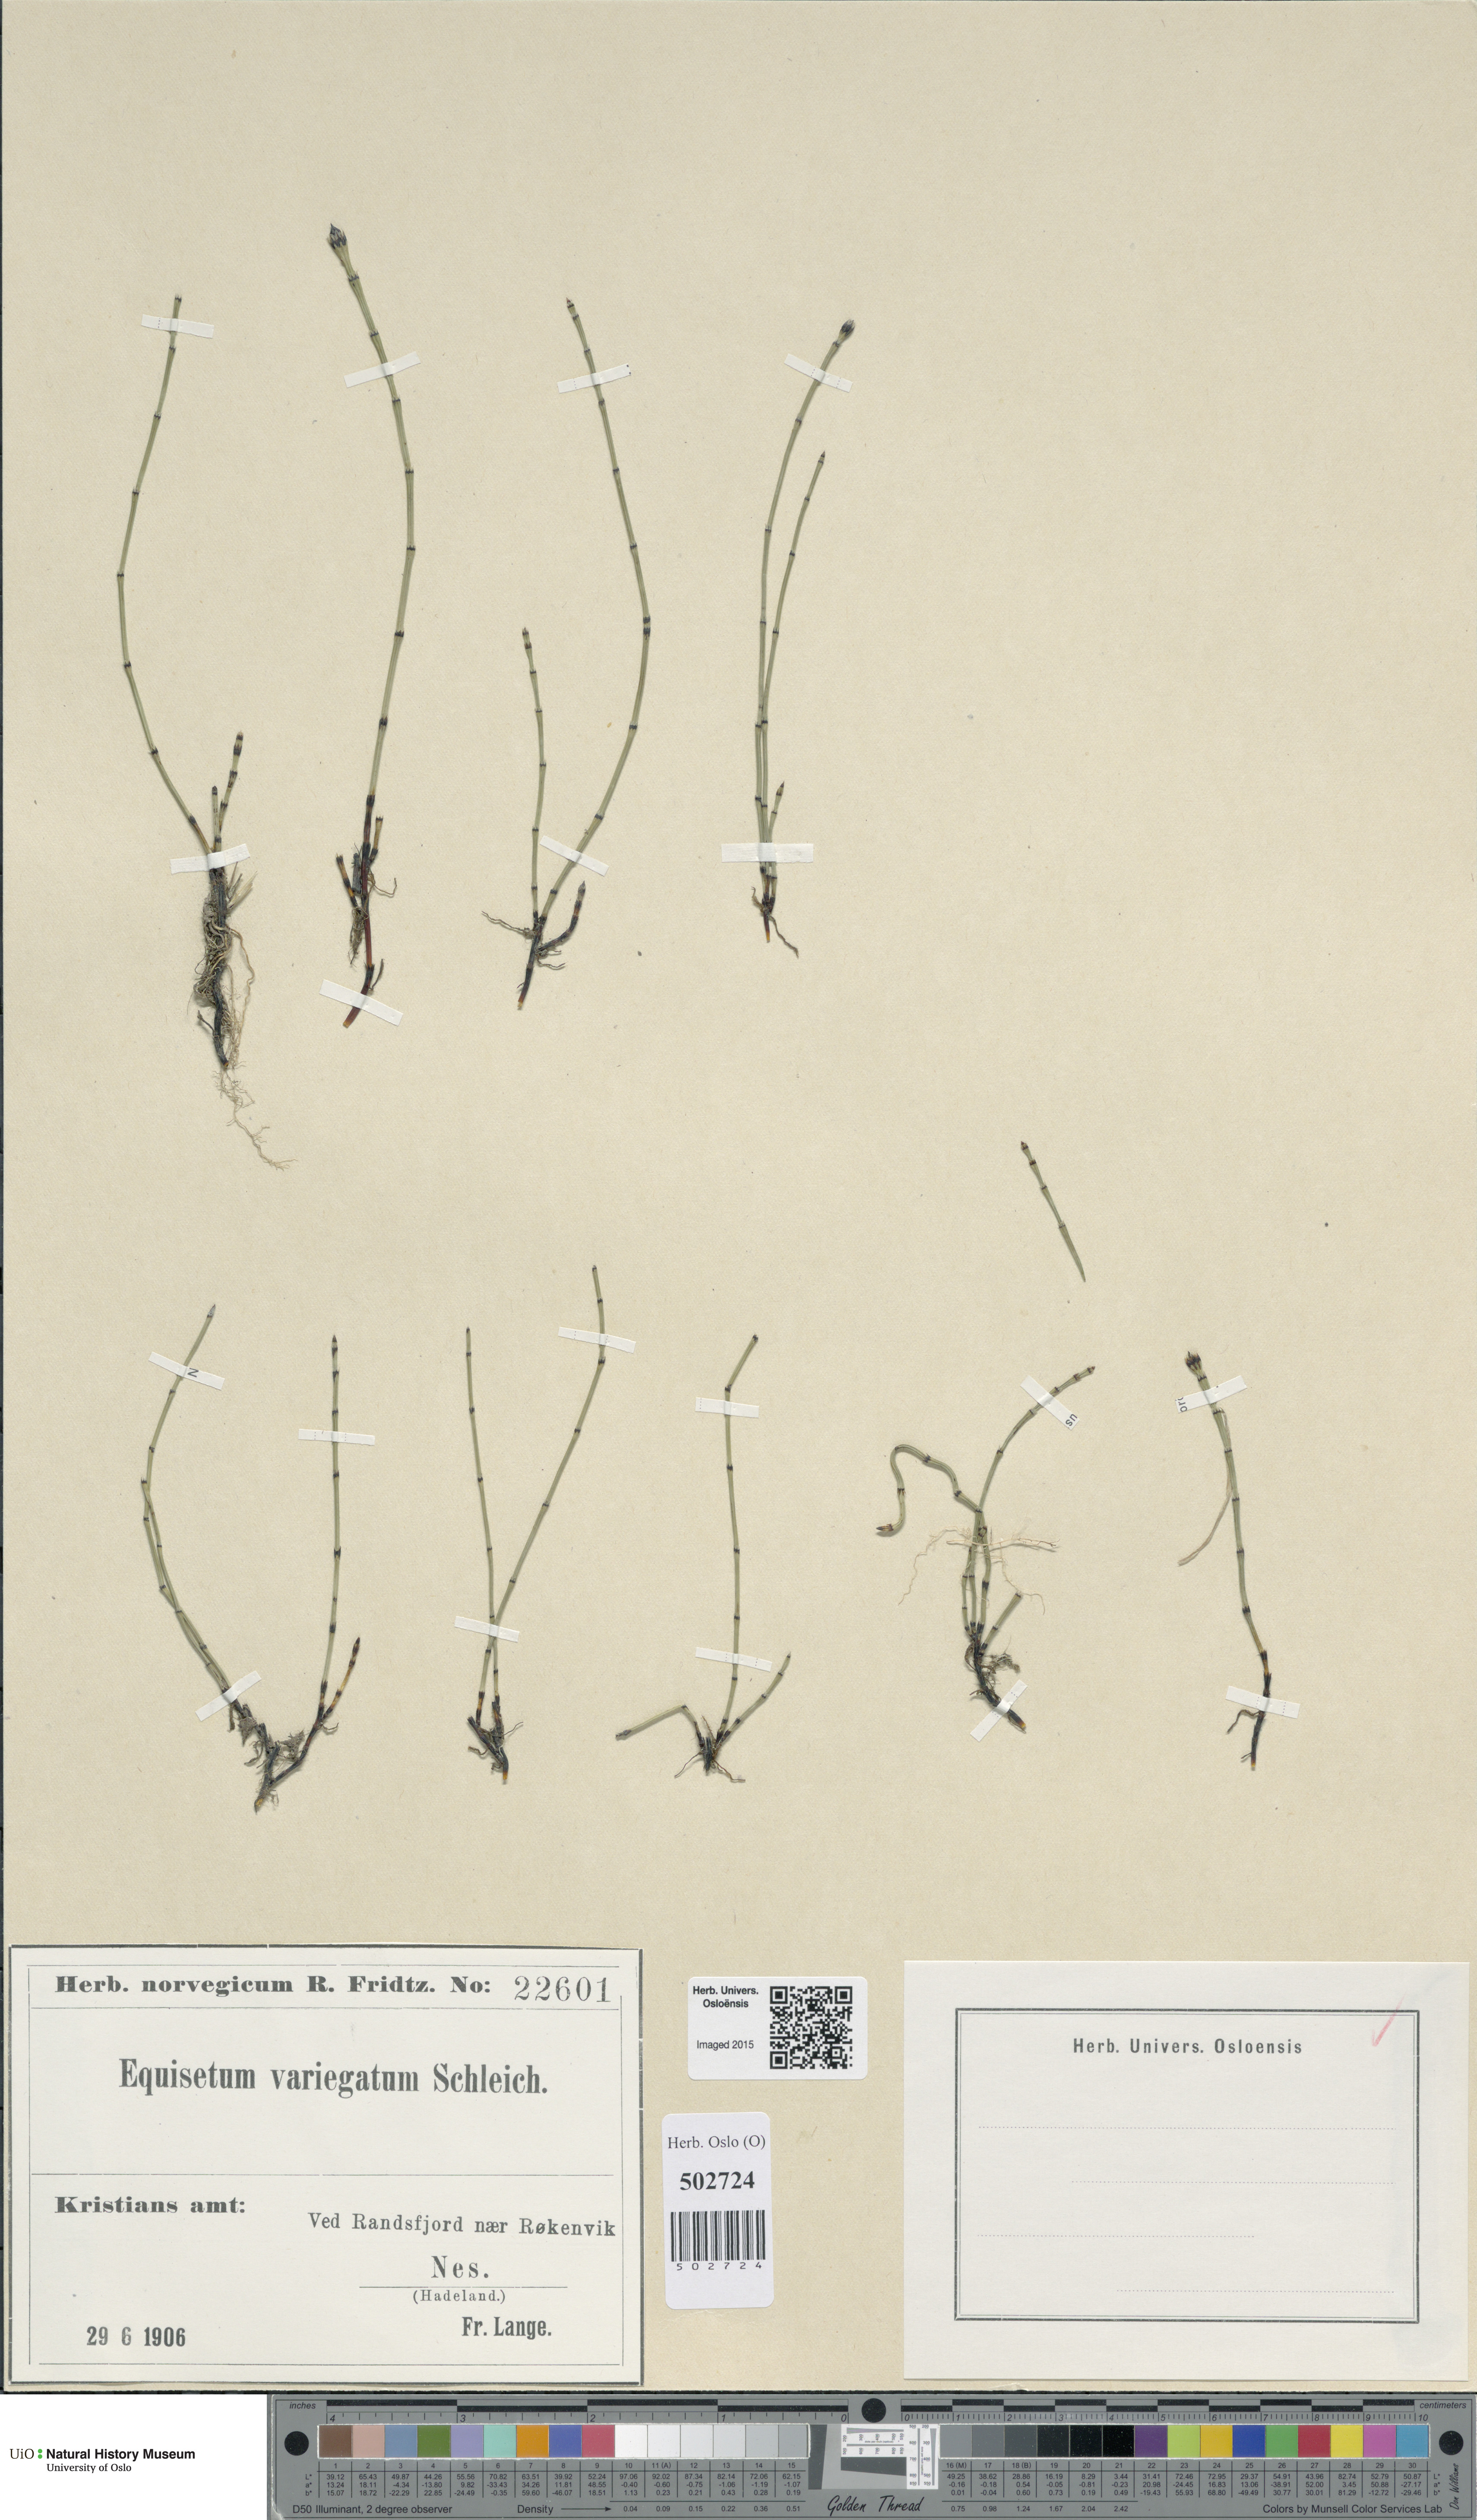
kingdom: Plantae
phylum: Tracheophyta
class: Polypodiopsida
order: Equisetales
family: Equisetaceae
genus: Equisetum
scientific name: Equisetum variegatum
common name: Variegated horsetail
